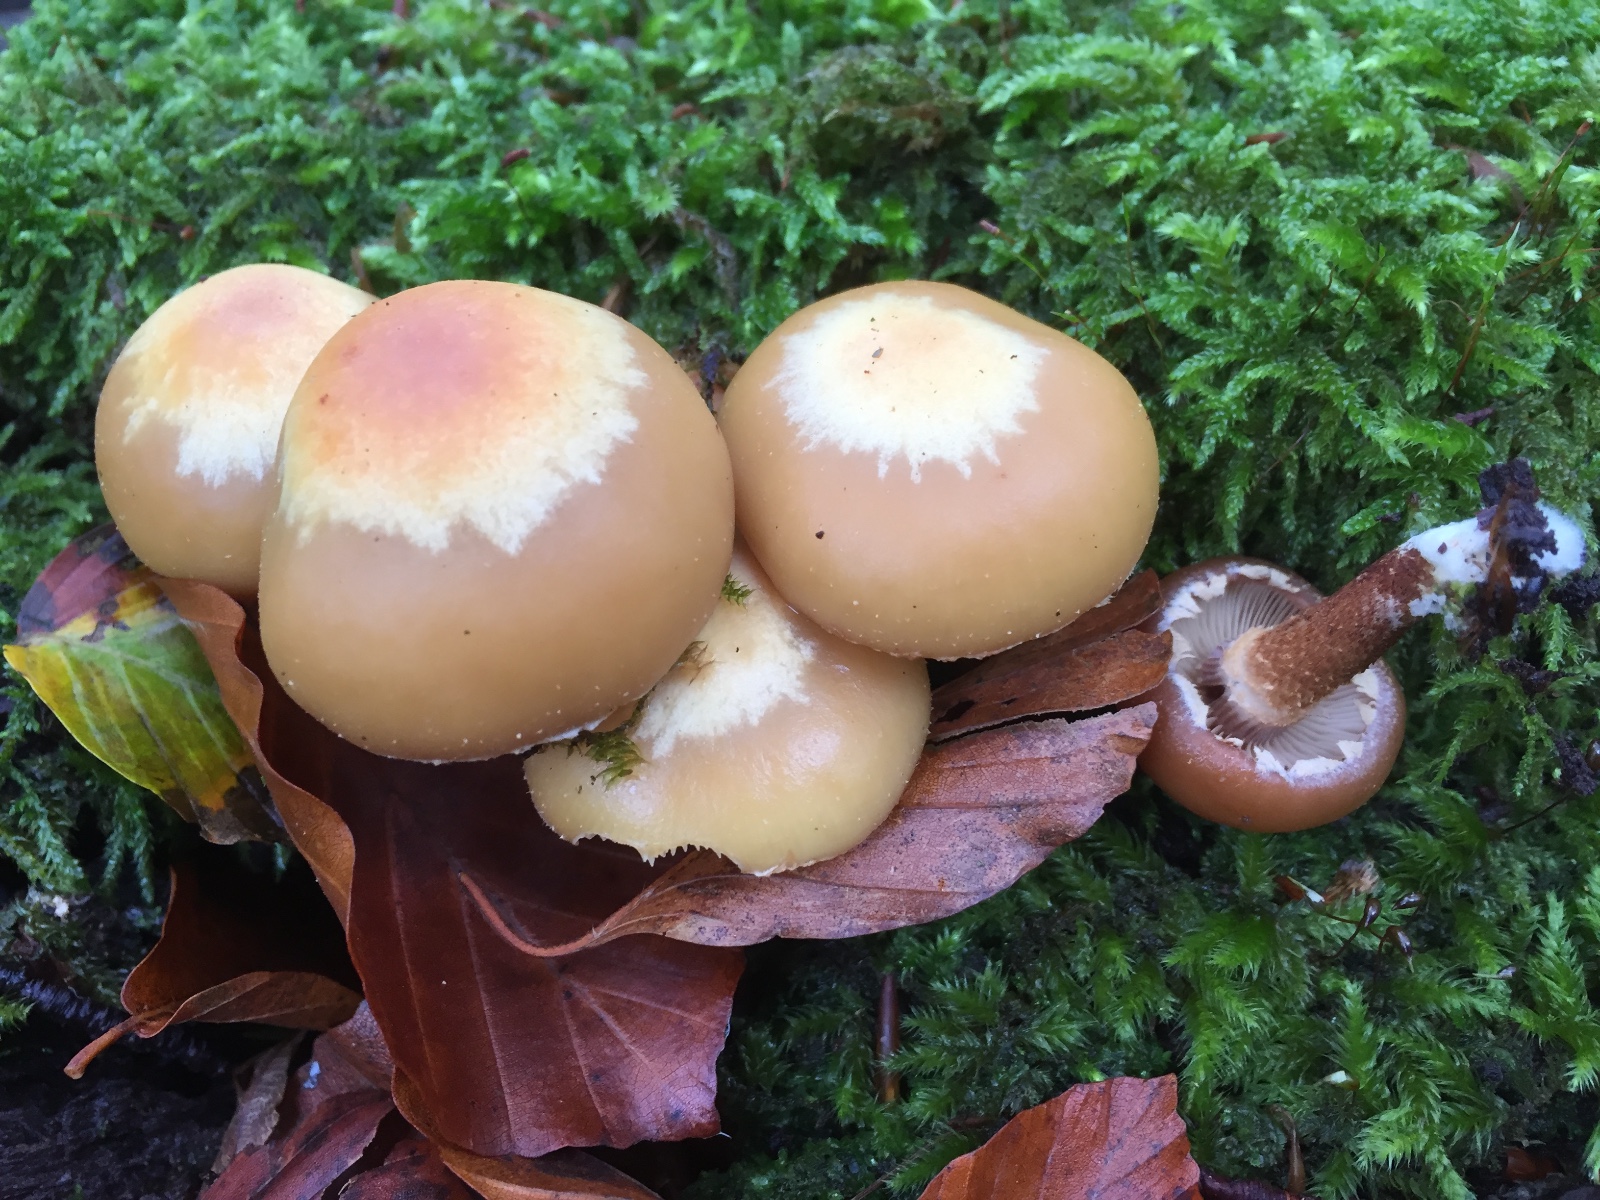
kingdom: Fungi
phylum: Basidiomycota
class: Agaricomycetes
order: Agaricales
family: Strophariaceae
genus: Kuehneromyces
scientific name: Kuehneromyces mutabilis
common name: foranderlig skælhat
